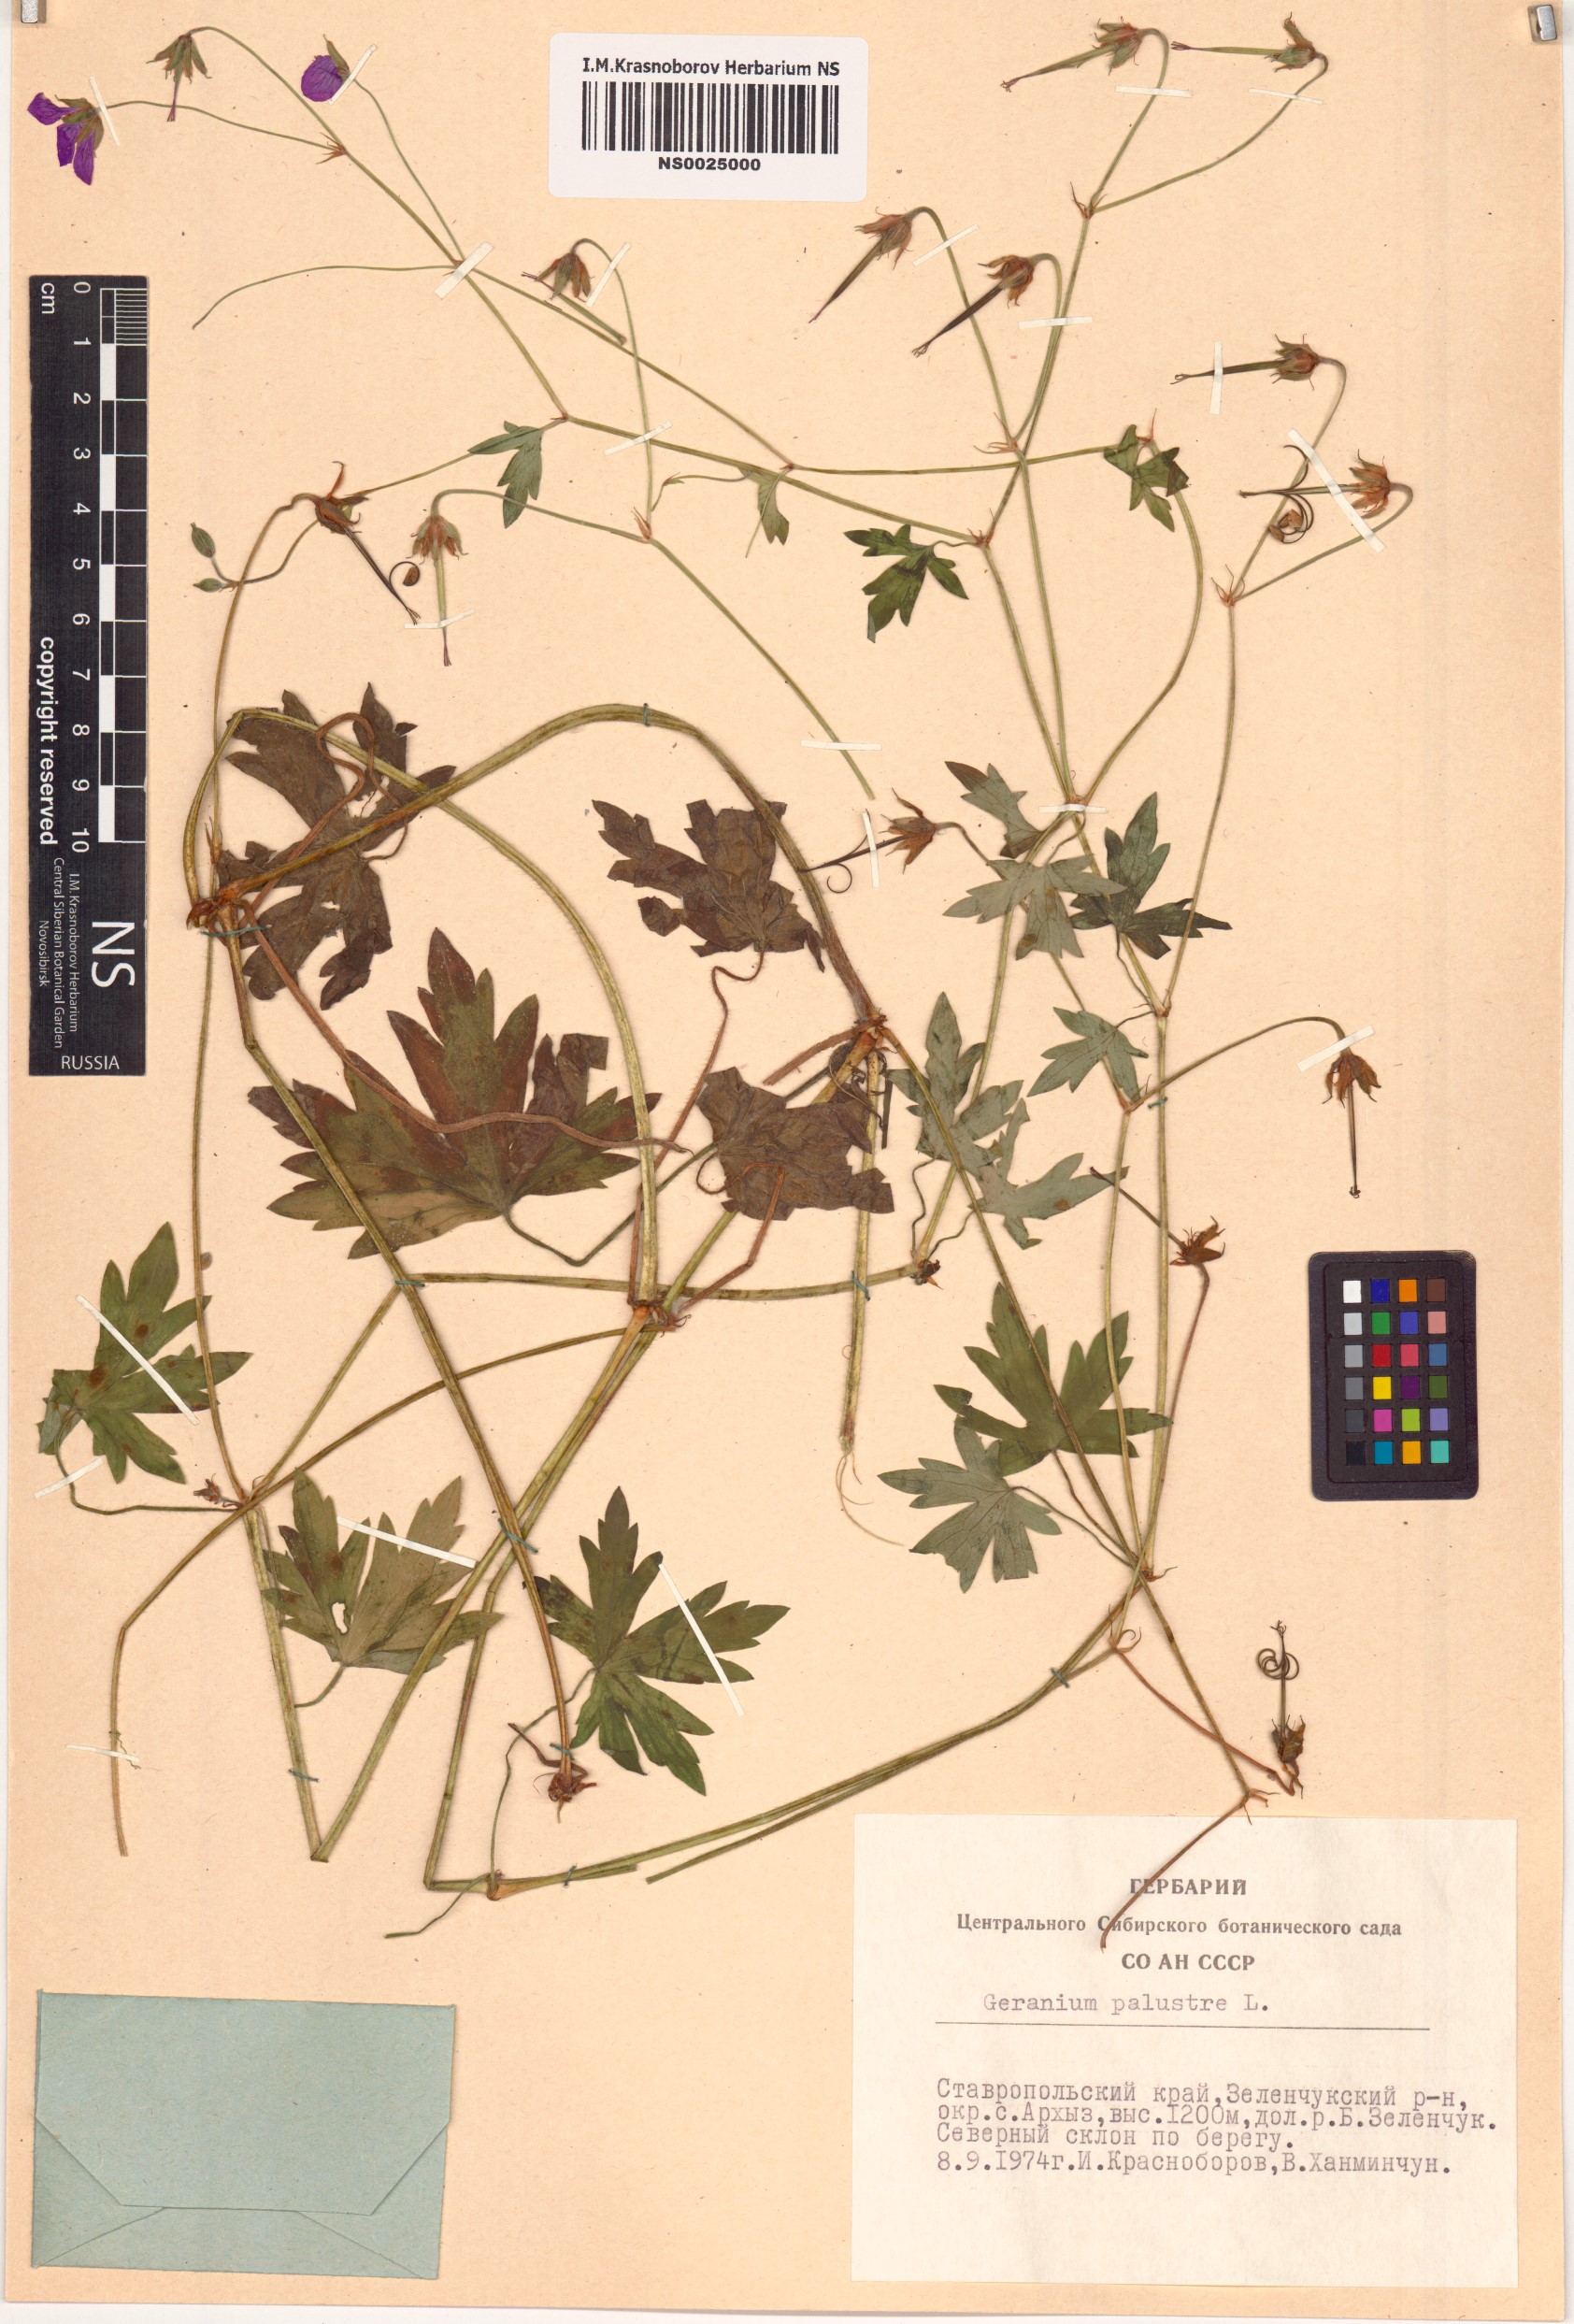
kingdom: Plantae
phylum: Tracheophyta
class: Magnoliopsida
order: Geraniales
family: Geraniaceae
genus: Geranium
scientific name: Geranium palustre
